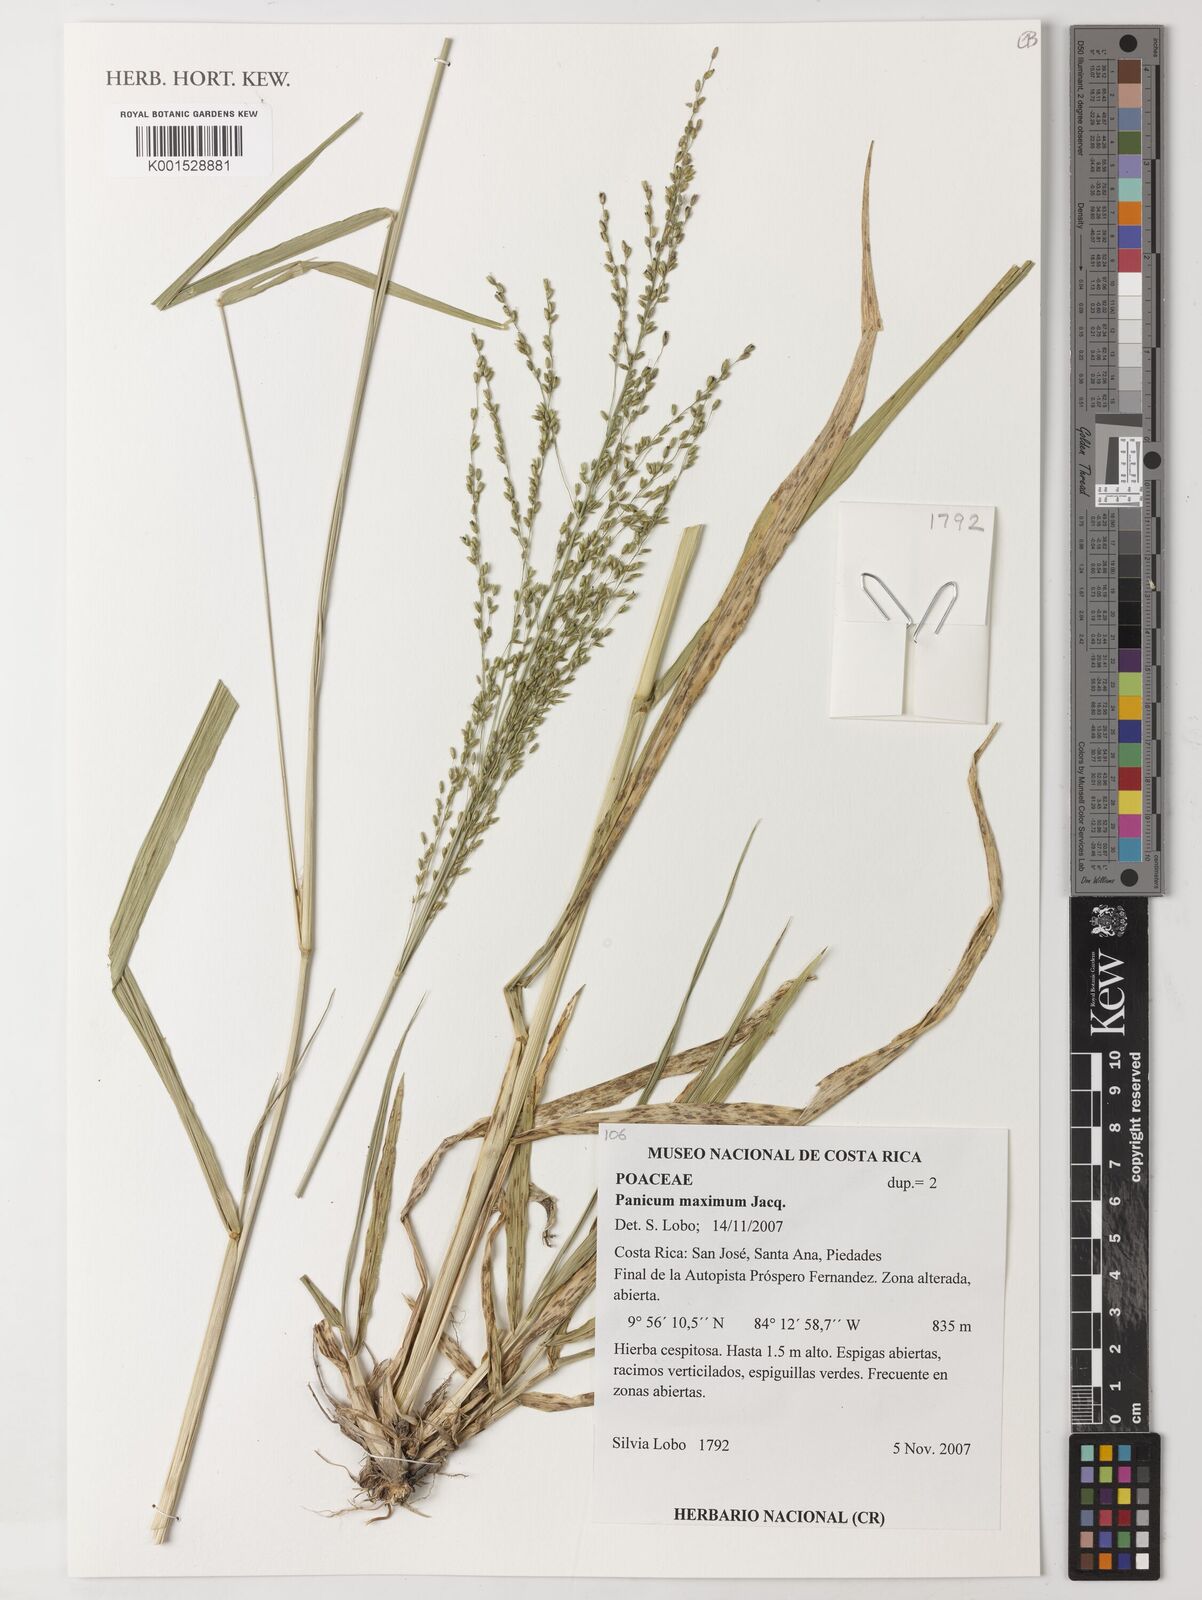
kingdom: Plantae
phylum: Tracheophyta
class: Liliopsida
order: Poales
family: Poaceae
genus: Megathyrsus
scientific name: Megathyrsus maximus
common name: Guineagrass
